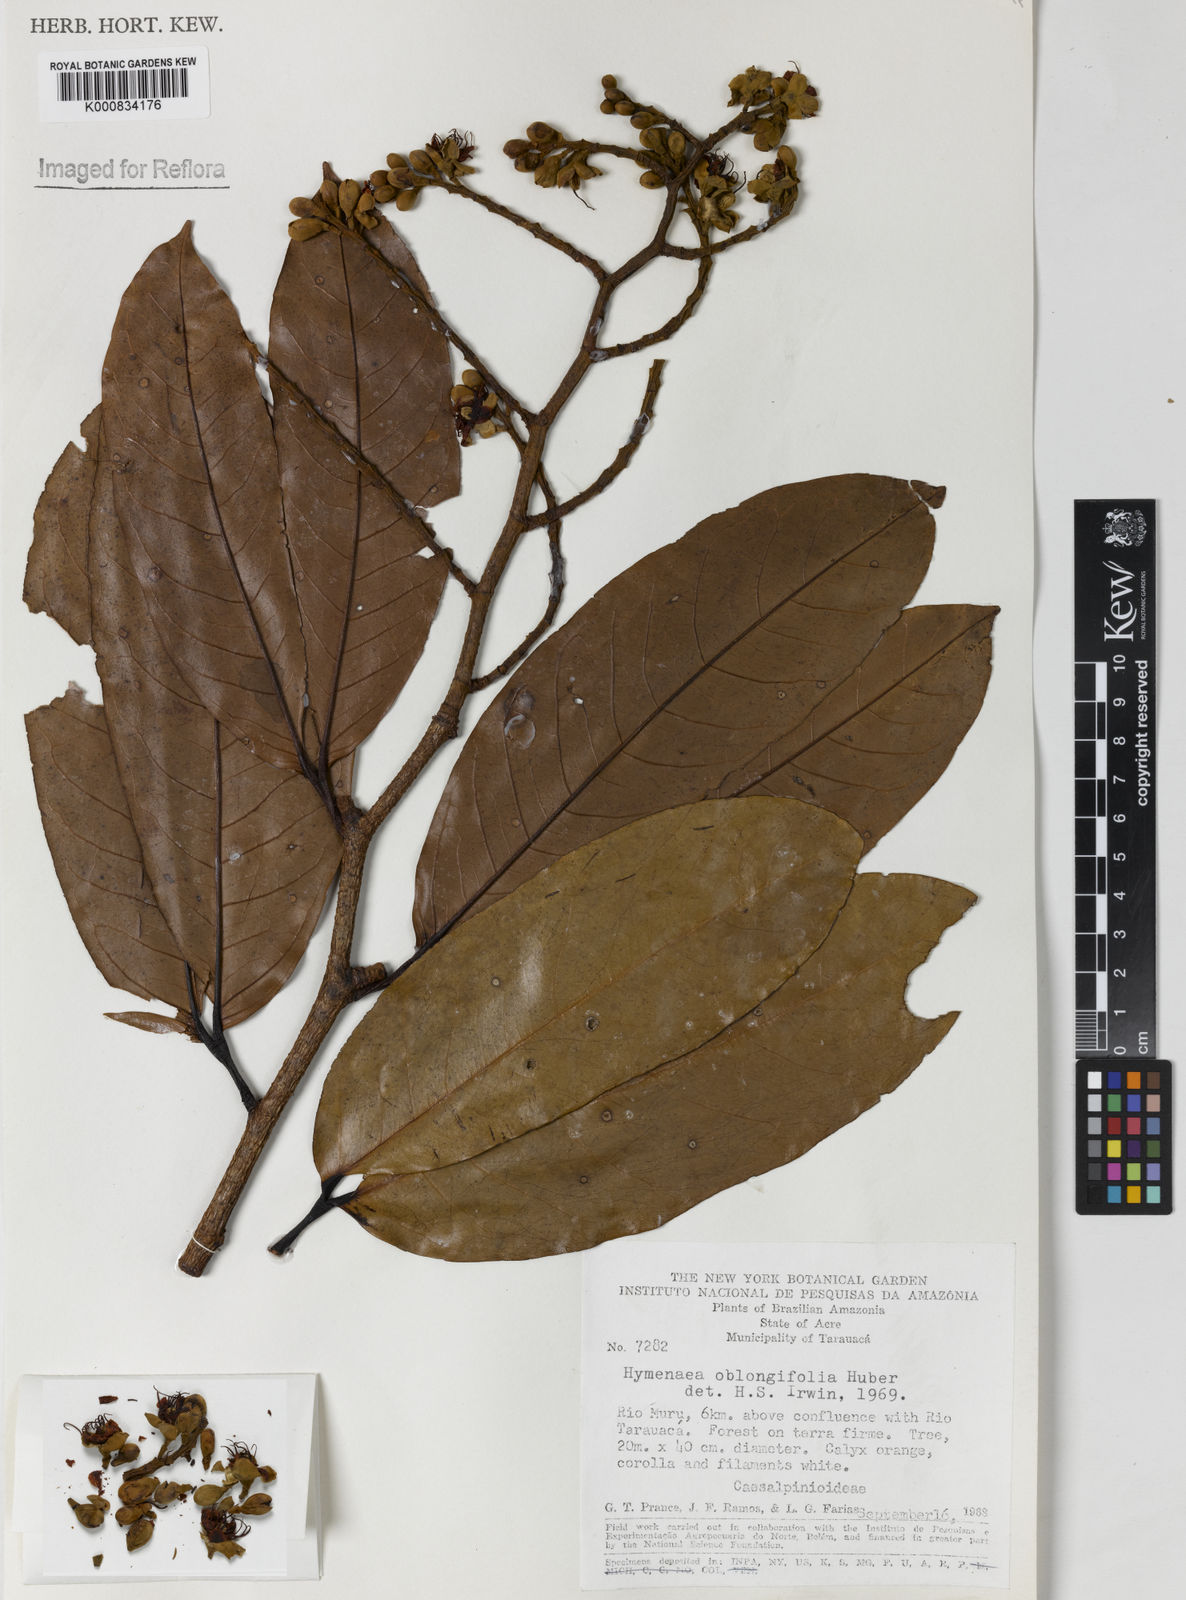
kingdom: Plantae
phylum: Tracheophyta
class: Magnoliopsida
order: Fabales
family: Fabaceae
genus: Hymenaea
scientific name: Hymenaea oblongifolia
